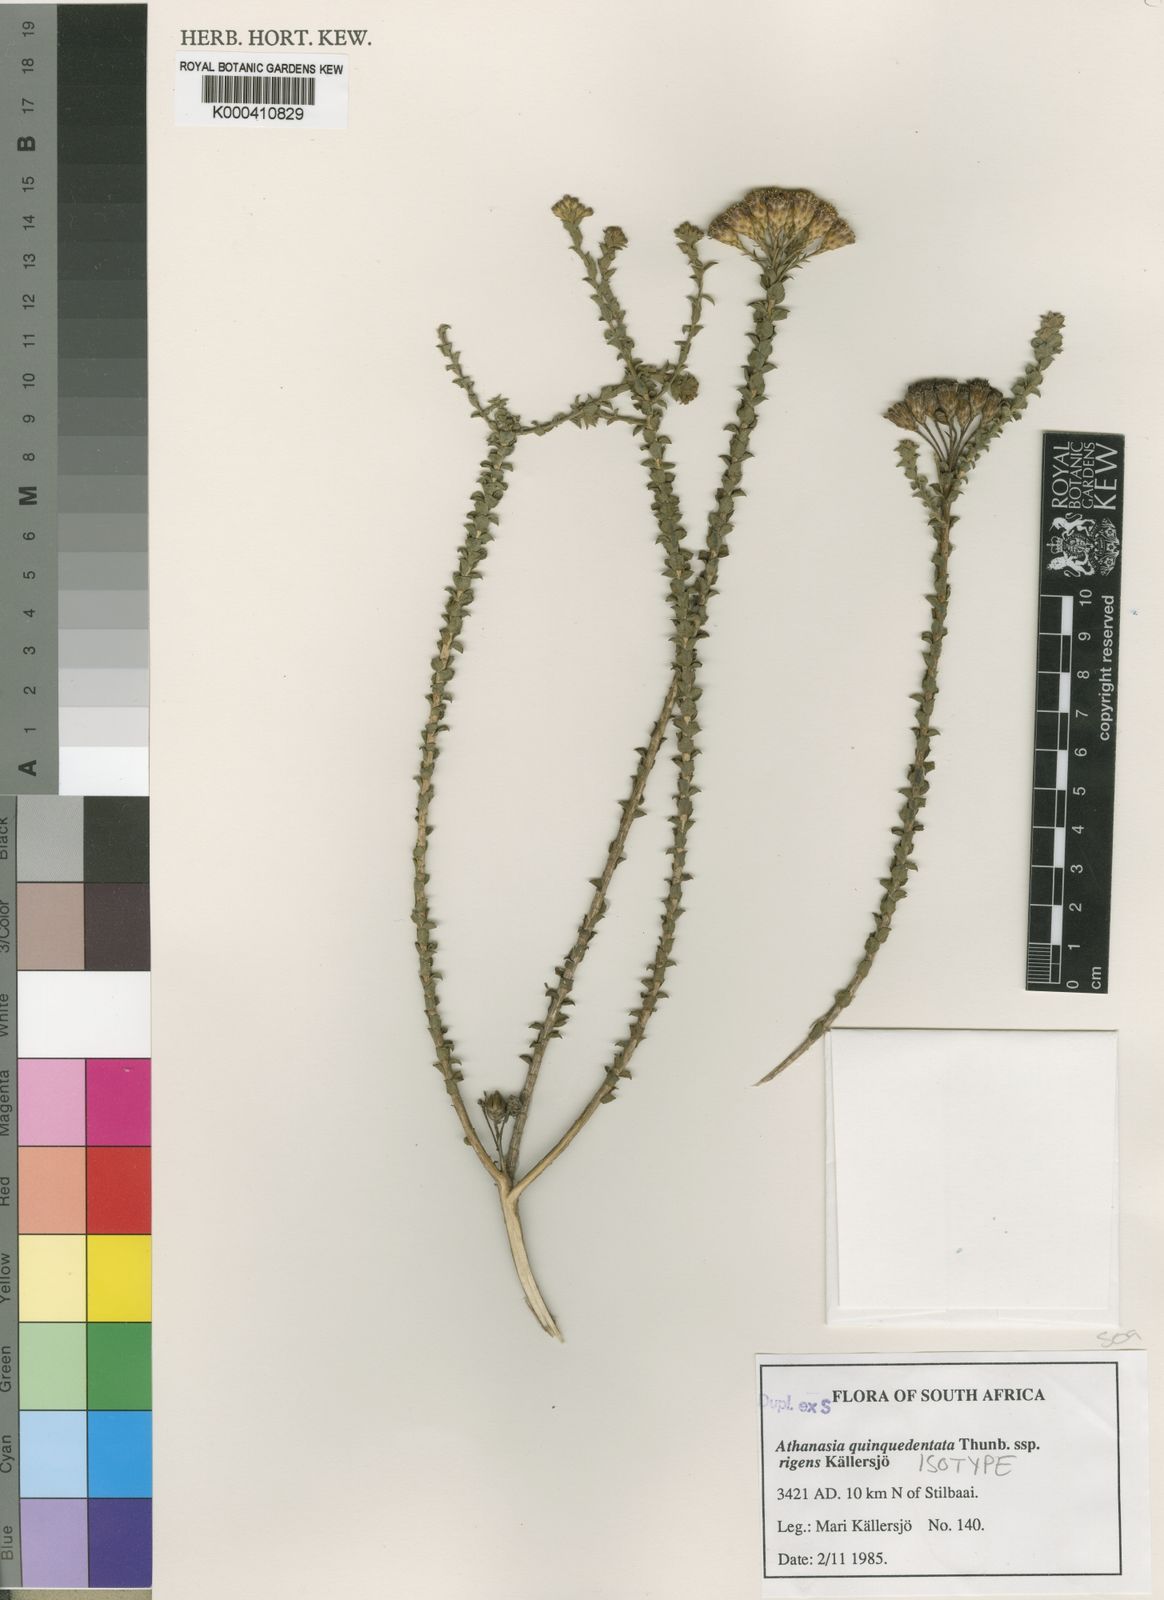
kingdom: Plantae
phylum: Tracheophyta
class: Magnoliopsida
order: Asterales
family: Asteraceae
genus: Athanasia
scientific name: Athanasia quinquedentata
